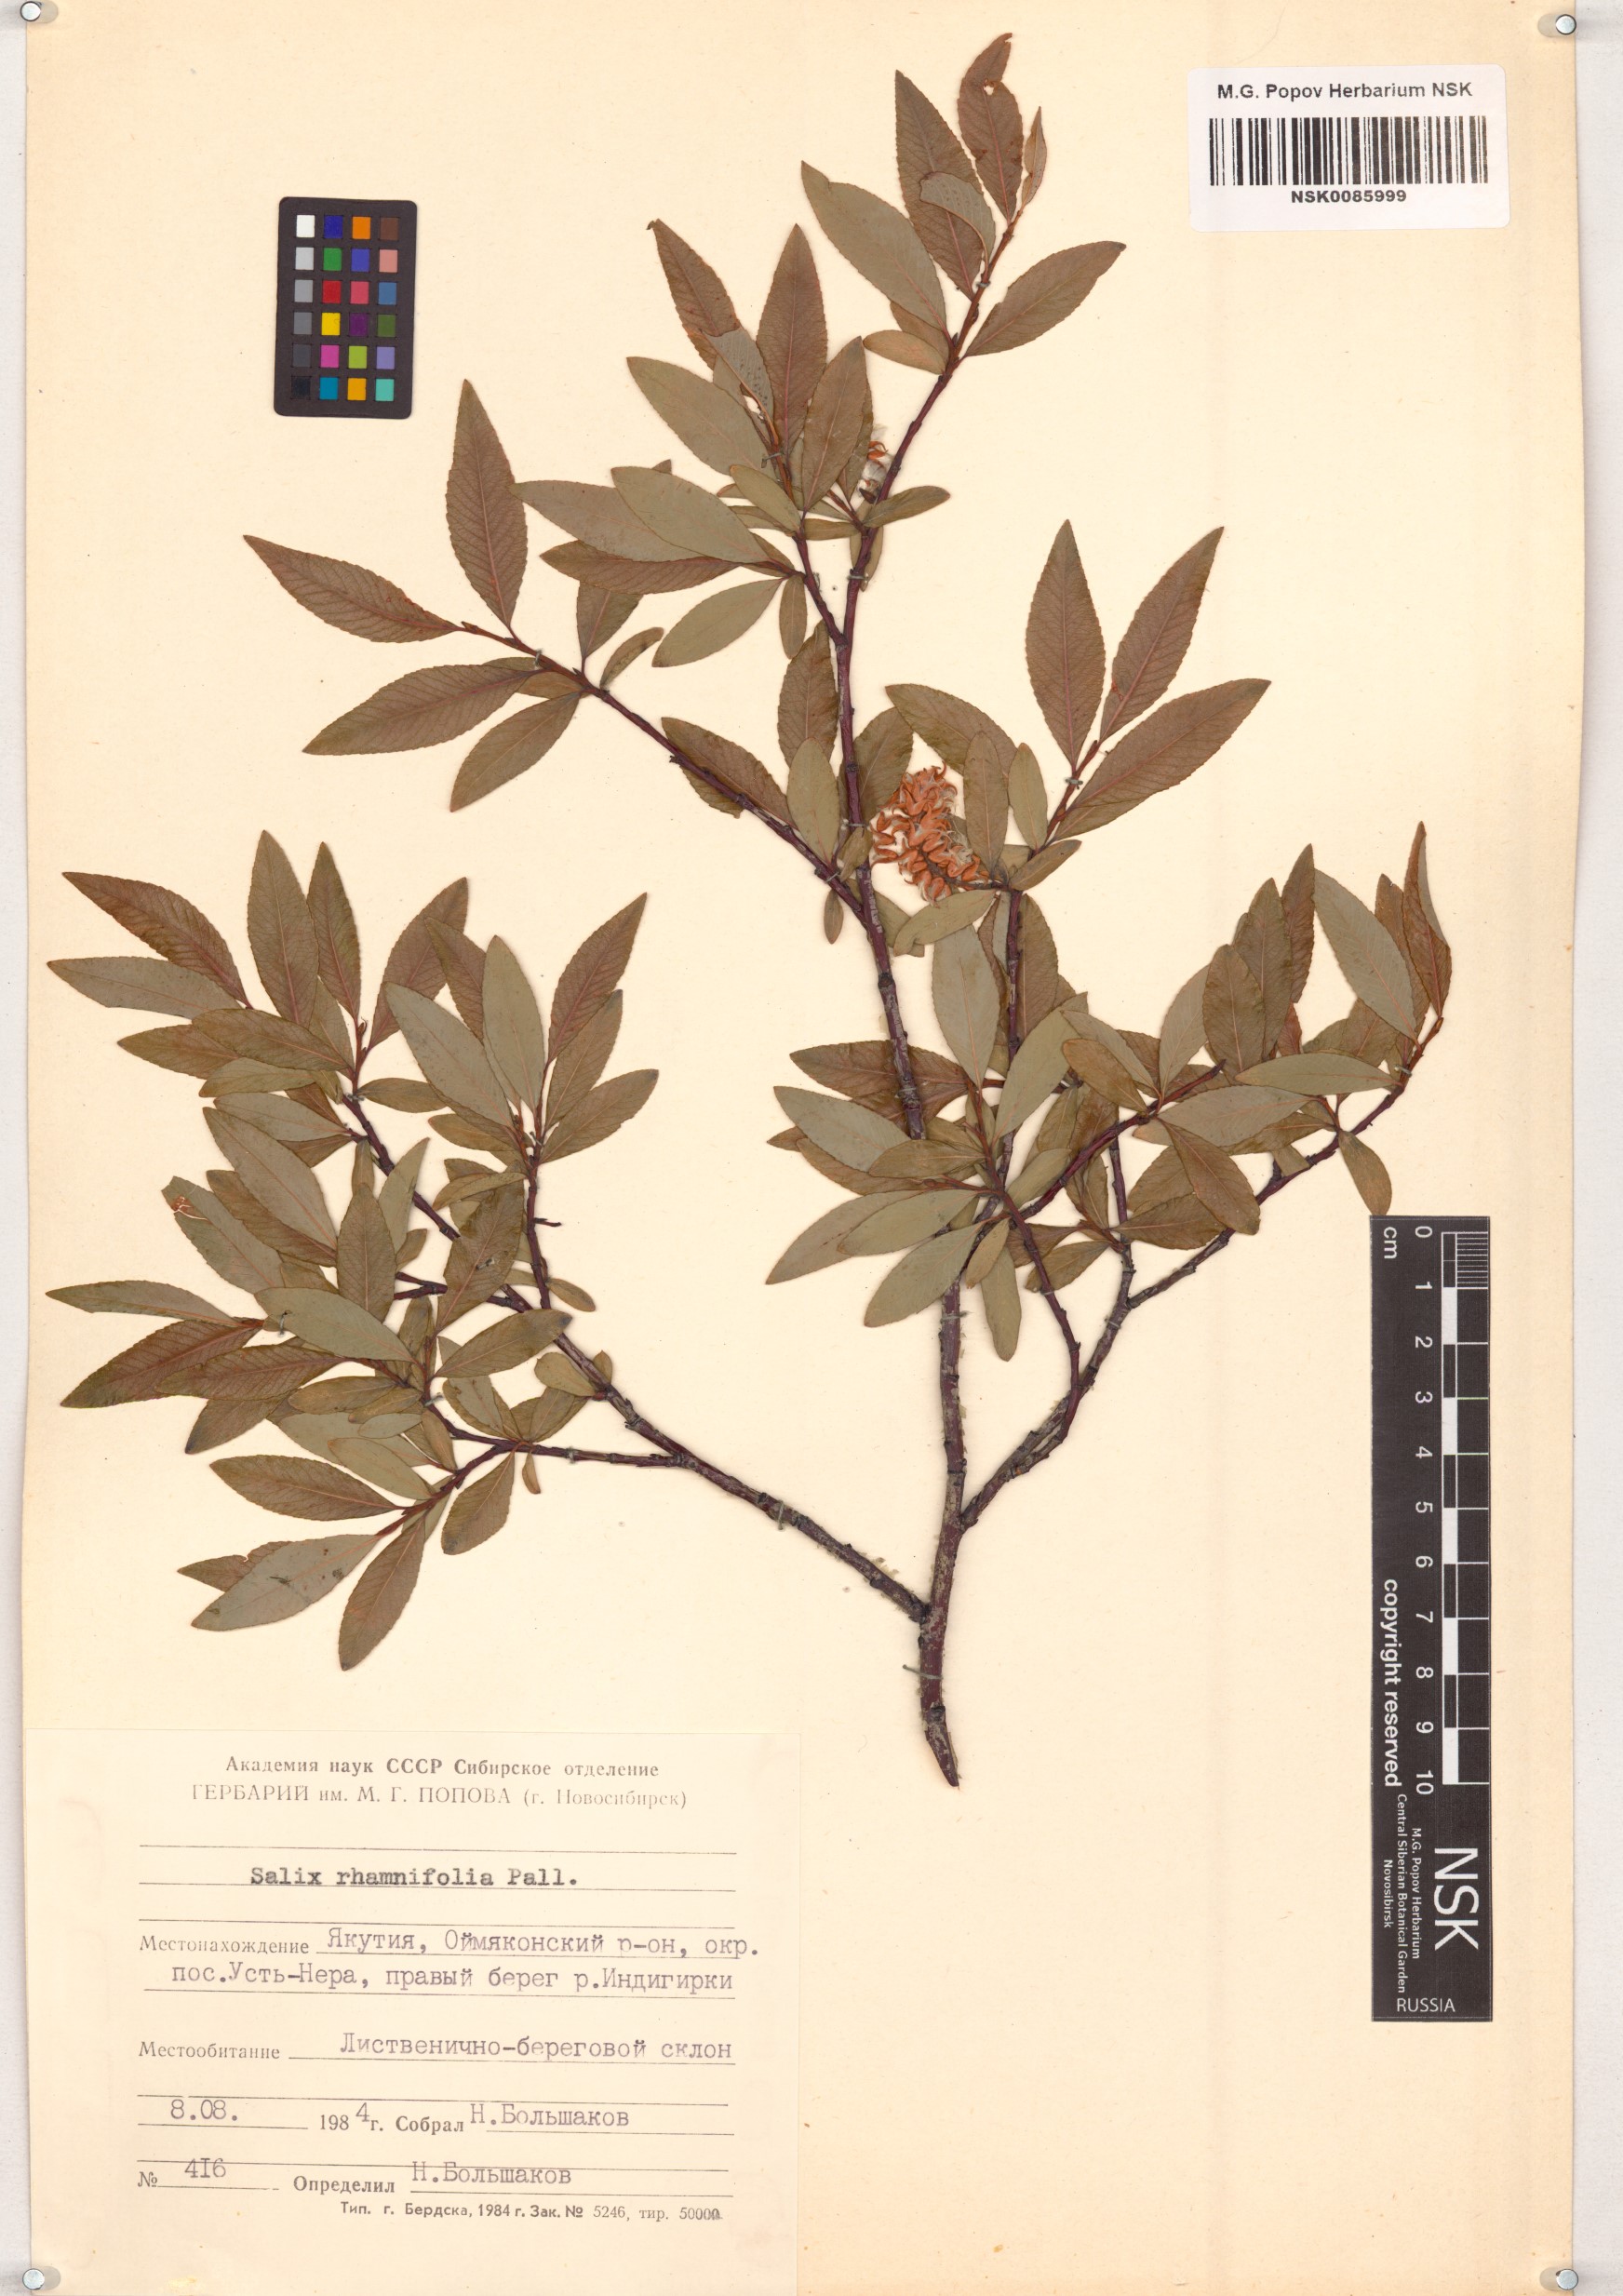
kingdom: Plantae
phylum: Tracheophyta
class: Magnoliopsida
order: Malpighiales
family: Salicaceae
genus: Salix
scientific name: Salix rhamnifolia
